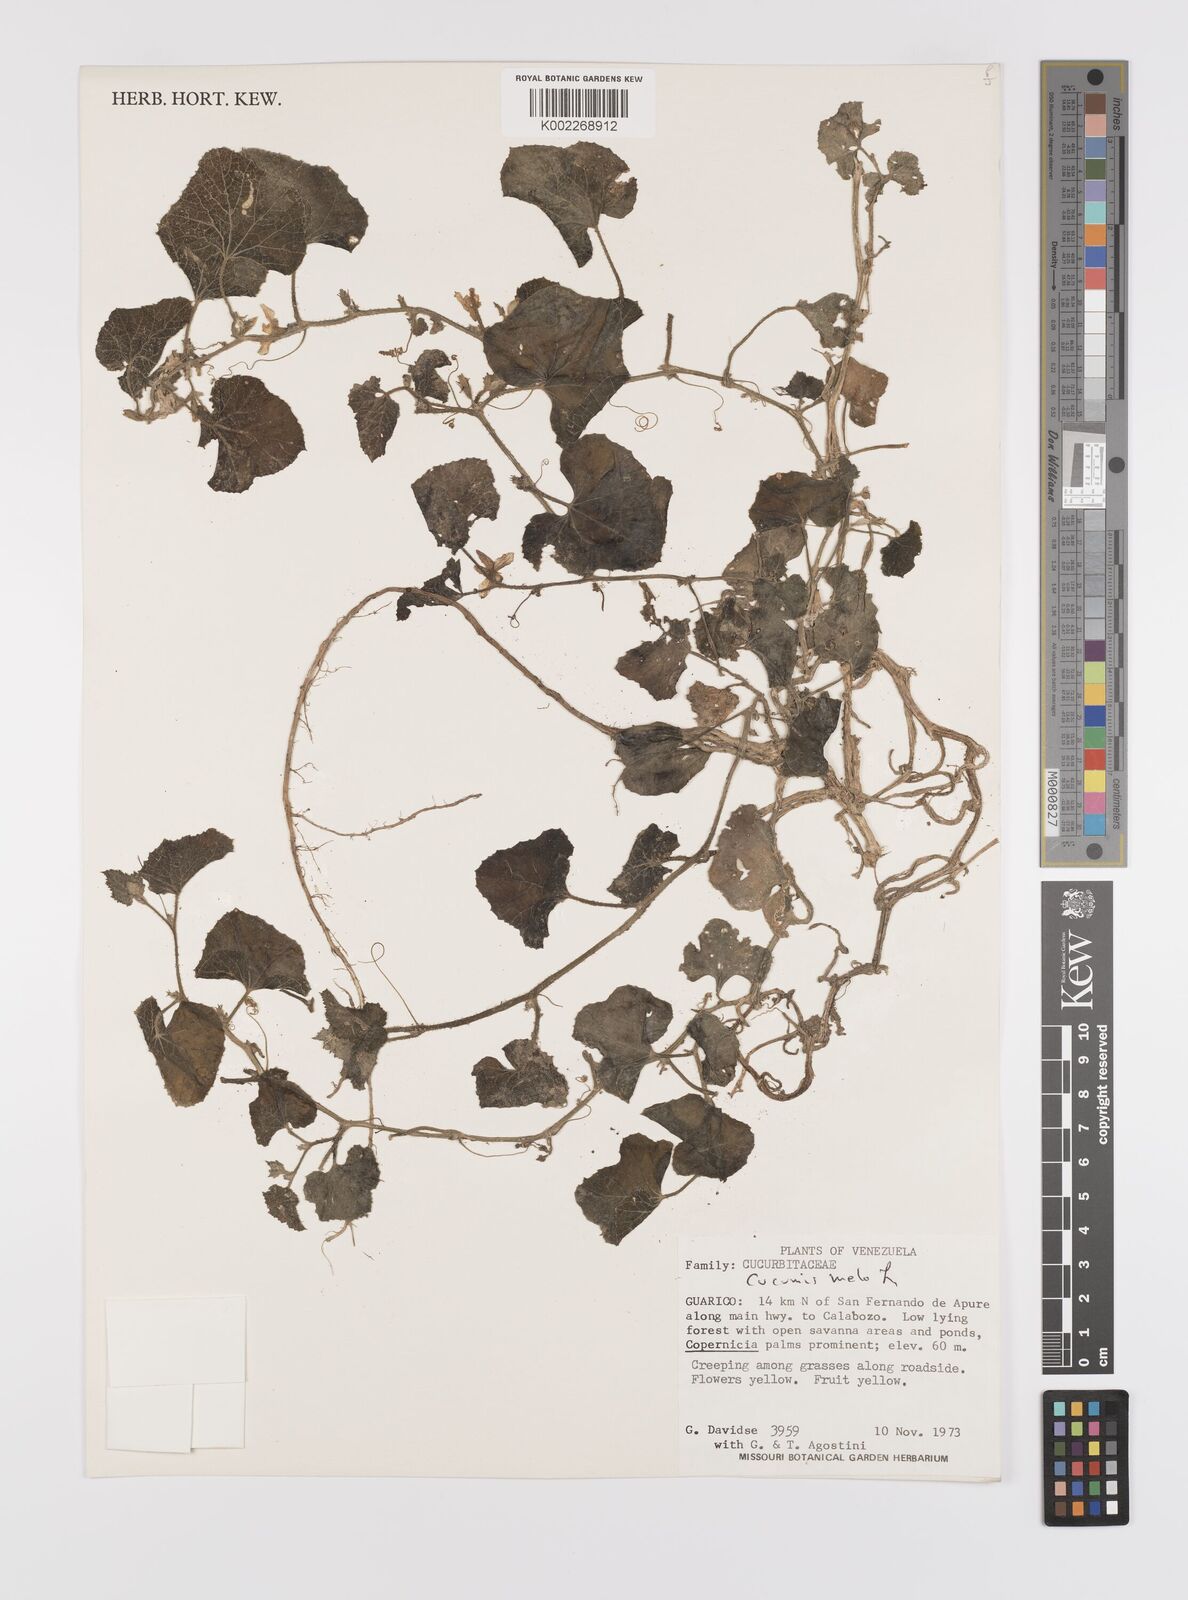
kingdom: Plantae
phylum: Tracheophyta
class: Magnoliopsida
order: Cucurbitales
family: Cucurbitaceae
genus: Cucumis
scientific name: Cucumis melo
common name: Melon
